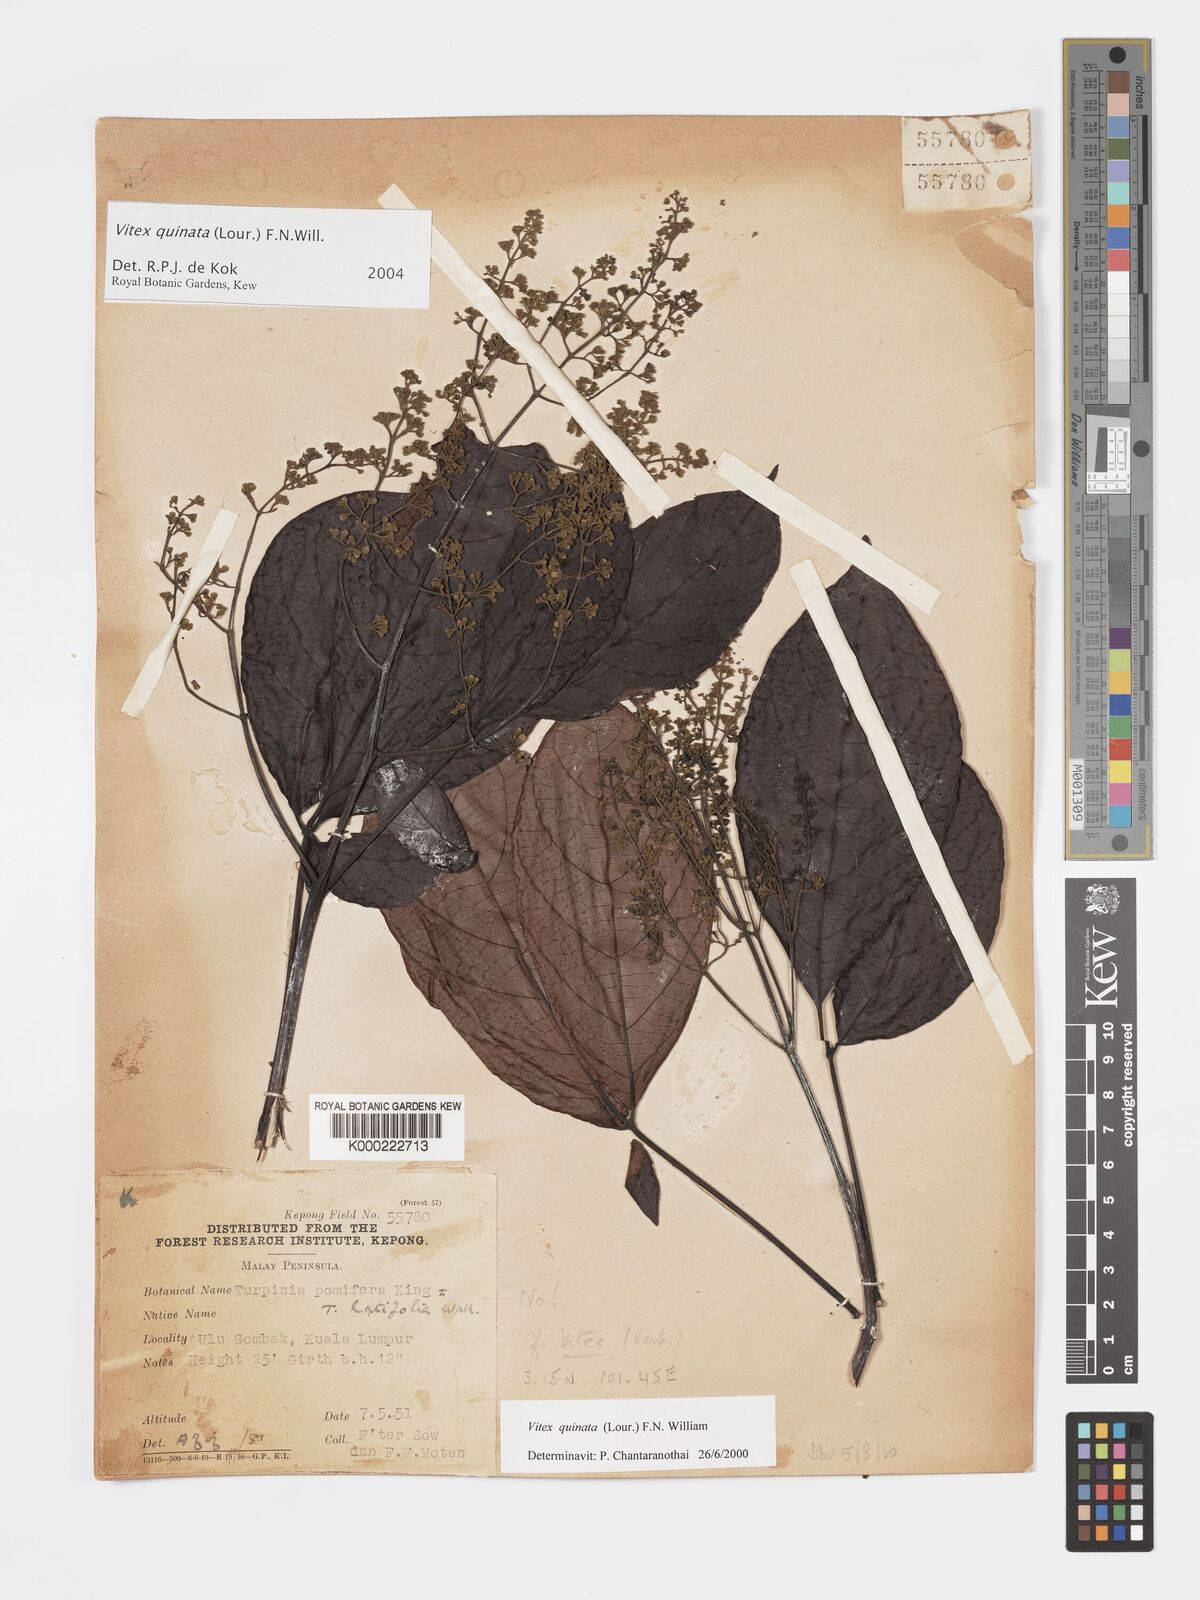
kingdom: Plantae
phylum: Tracheophyta
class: Magnoliopsida
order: Lamiales
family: Lamiaceae
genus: Vitex
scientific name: Vitex quinata
